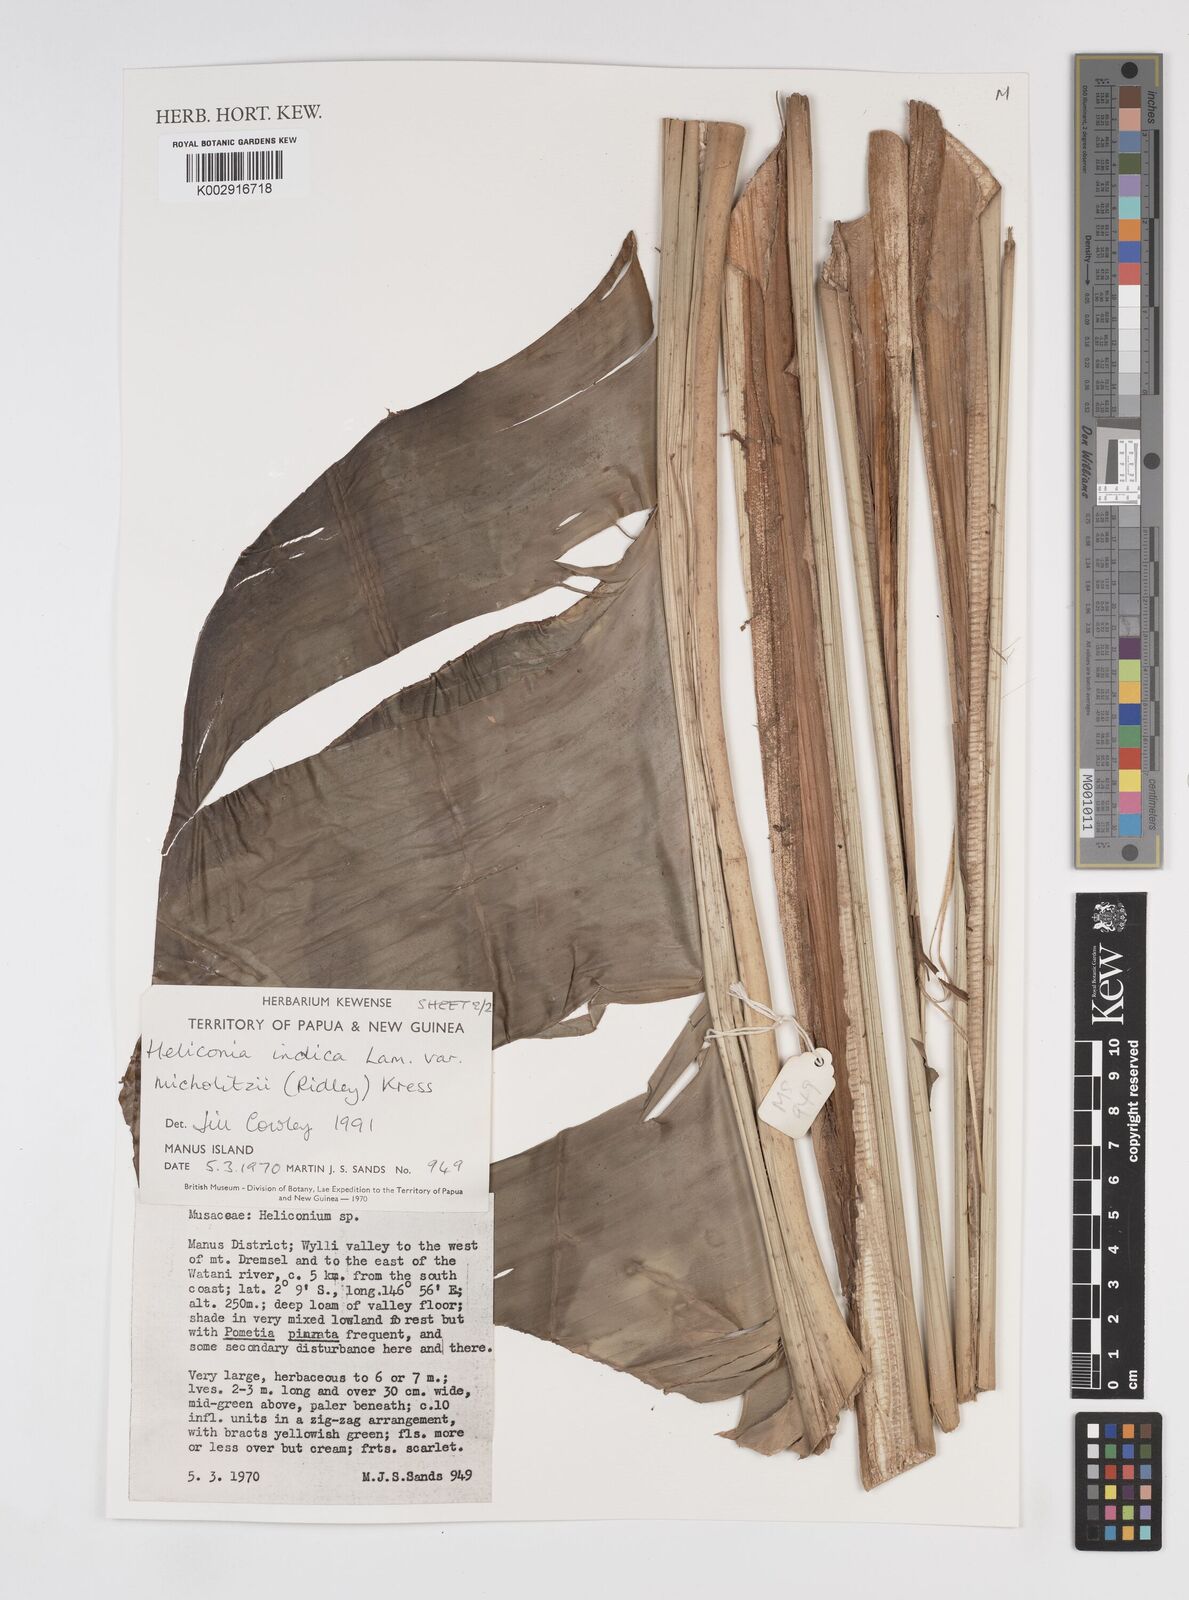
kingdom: Plantae
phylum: Tracheophyta
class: Liliopsida
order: Zingiberales
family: Heliconiaceae
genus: Heliconia
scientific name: Heliconia indica
